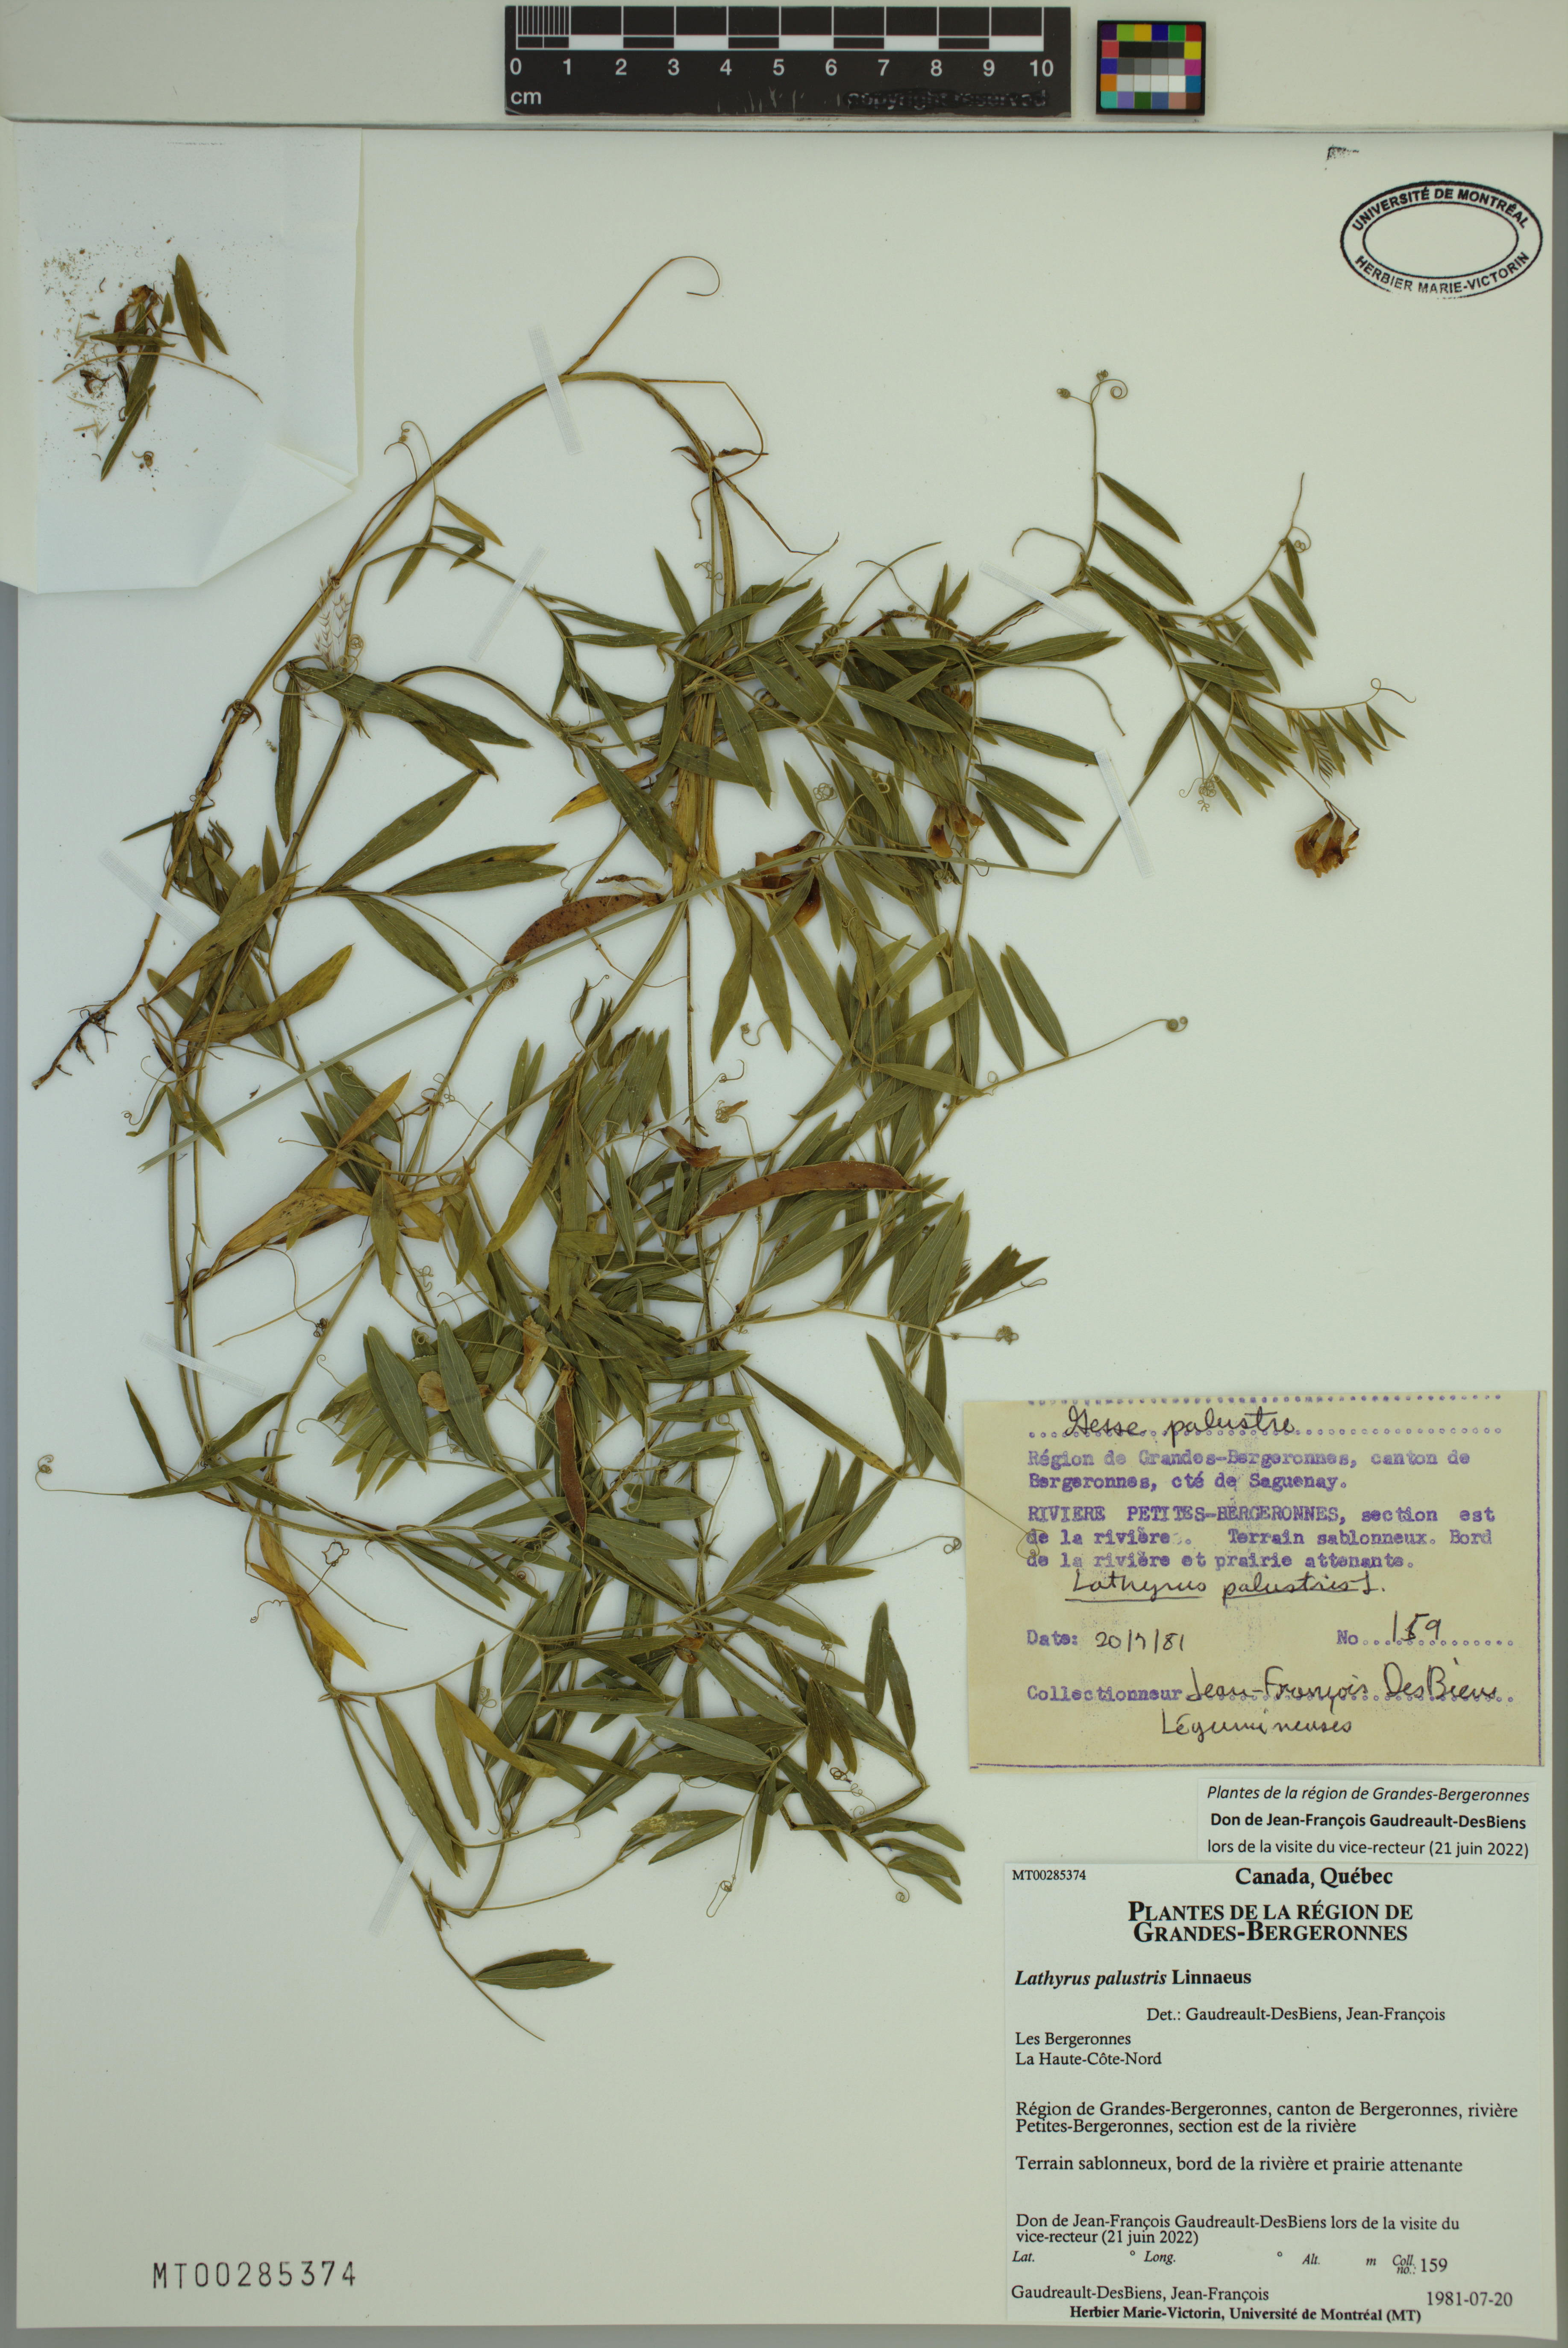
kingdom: Plantae
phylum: Tracheophyta
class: Magnoliopsida
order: Fabales
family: Fabaceae
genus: Lathyrus
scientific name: Lathyrus palustris
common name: Marsh pea
